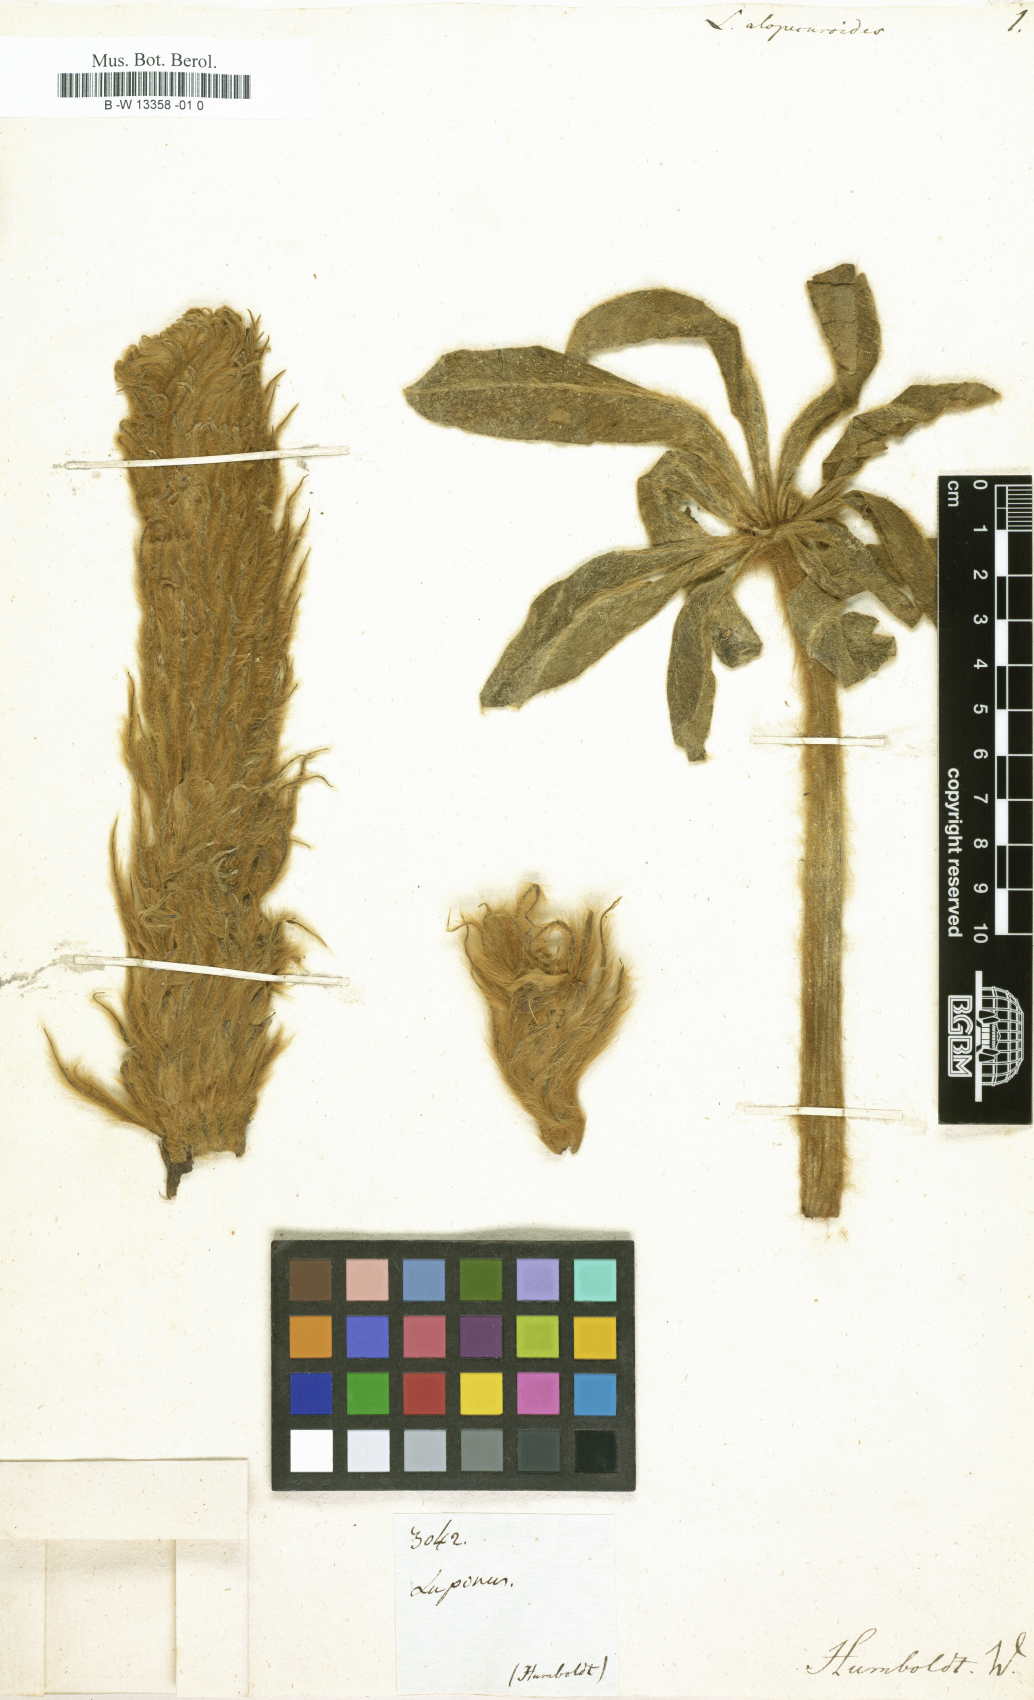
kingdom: Plantae
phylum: Tracheophyta
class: Magnoliopsida
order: Fabales
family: Fabaceae
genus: Lupinus
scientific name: Lupinus alopecuroides
